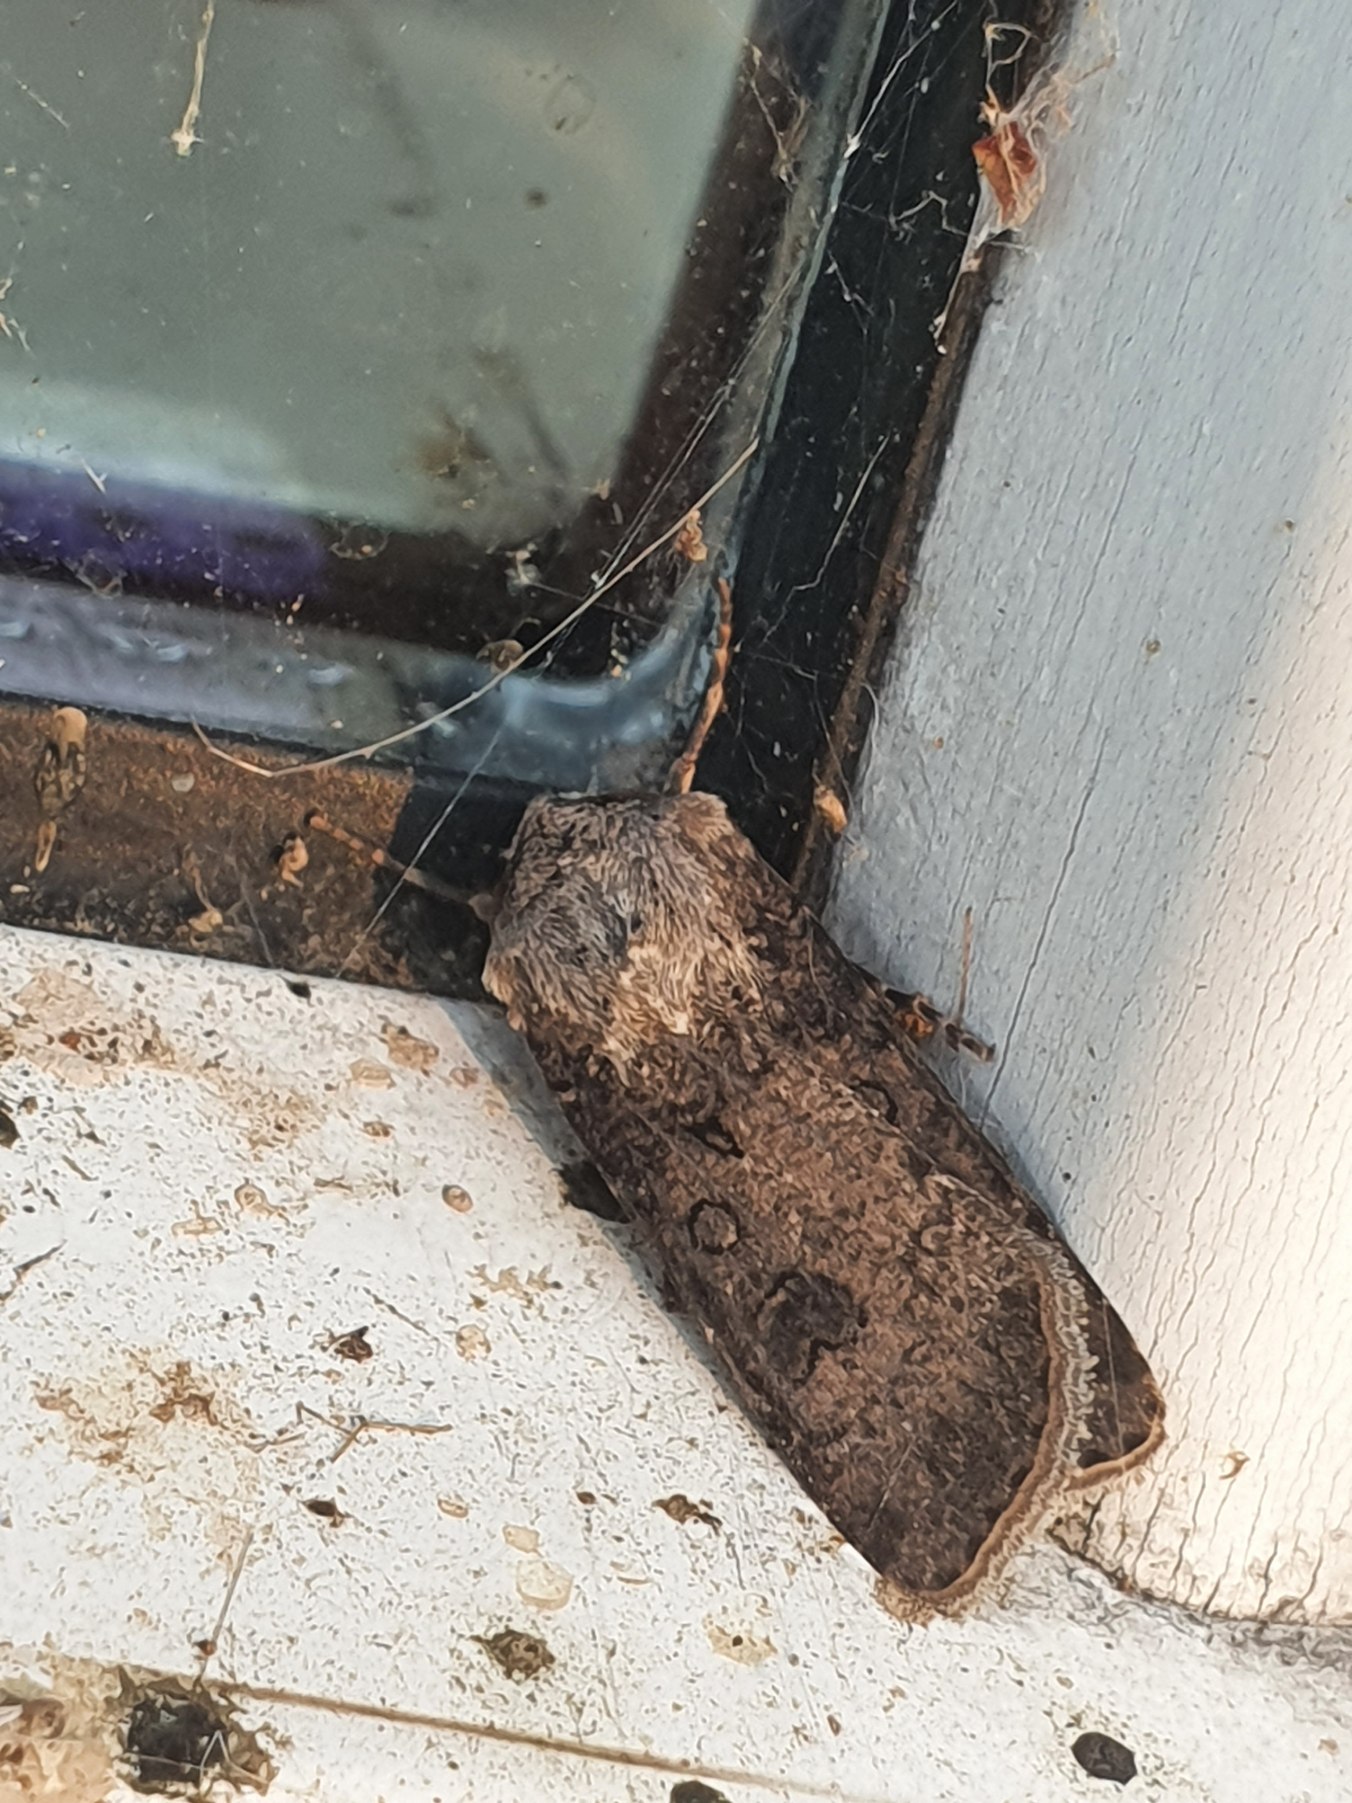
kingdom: Animalia
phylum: Arthropoda
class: Insecta
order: Lepidoptera
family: Noctuidae
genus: Agrotis
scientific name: Agrotis segetum
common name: Agerugle
